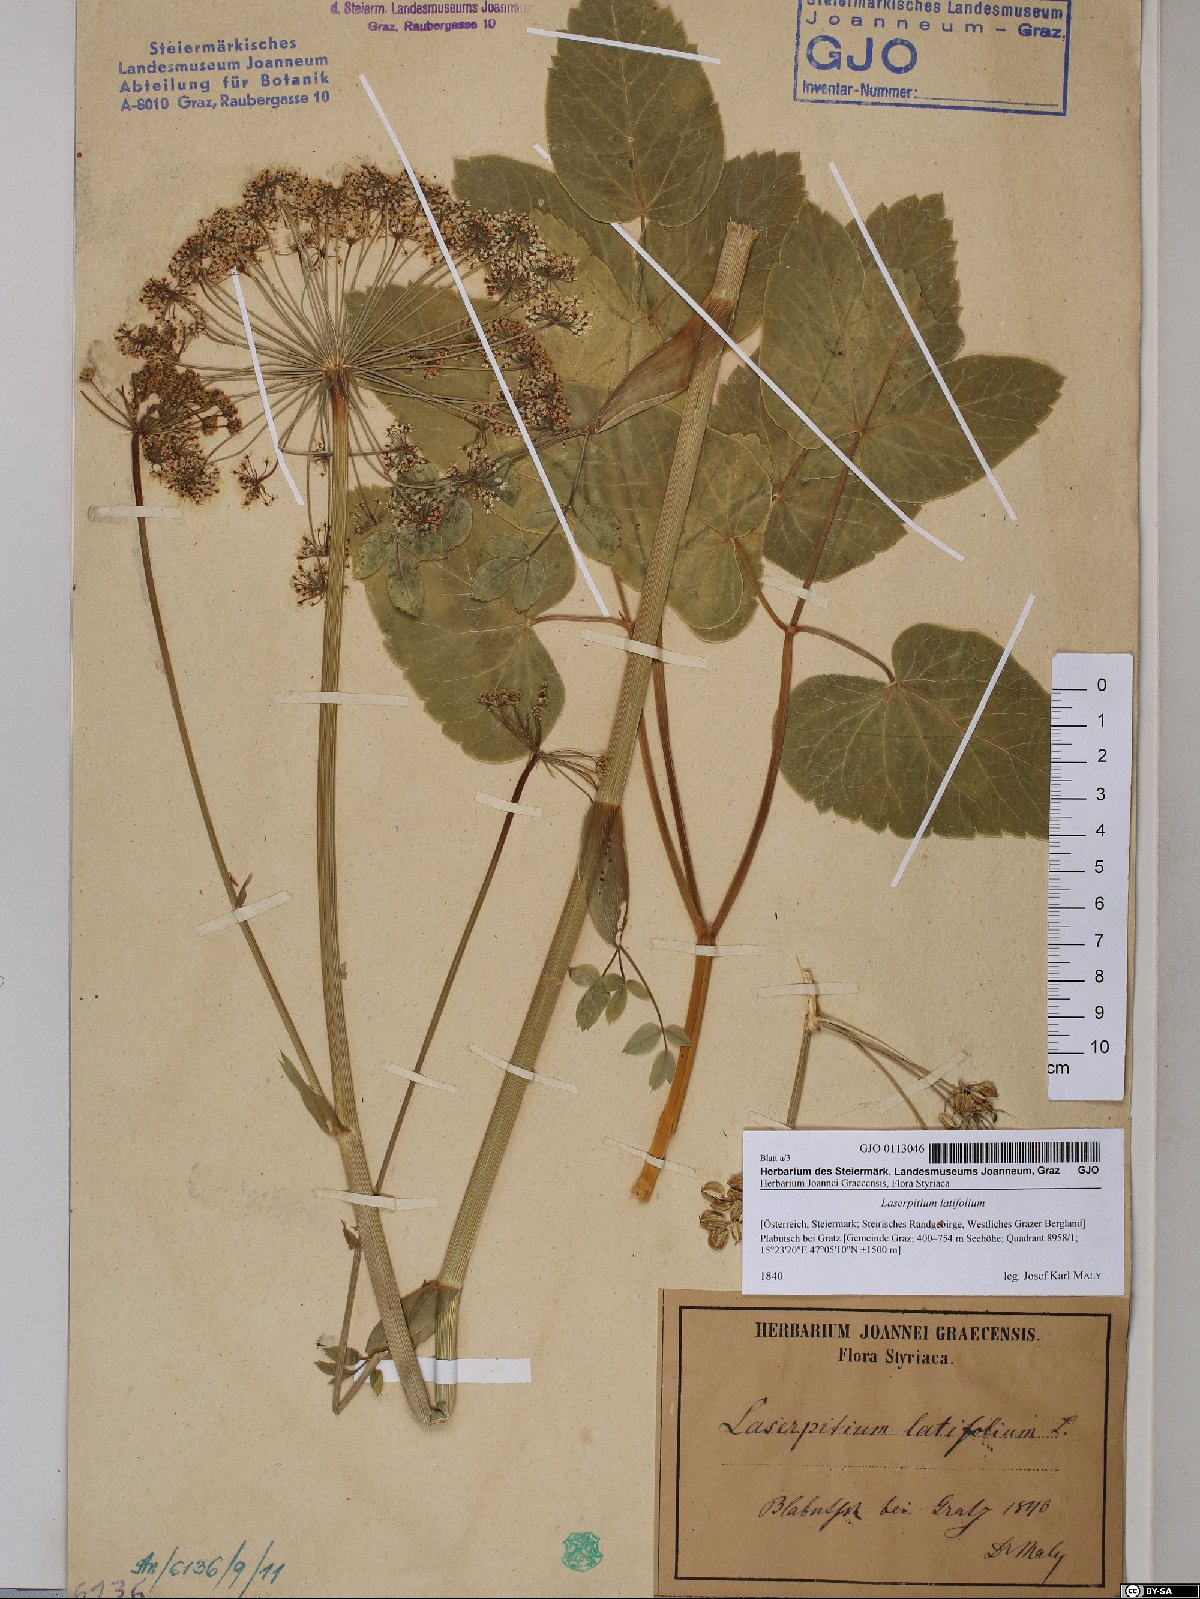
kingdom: Plantae
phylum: Tracheophyta
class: Magnoliopsida
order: Apiales
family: Apiaceae
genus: Laserpitium
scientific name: Laserpitium latifolium
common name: Broadleaf sermountain
